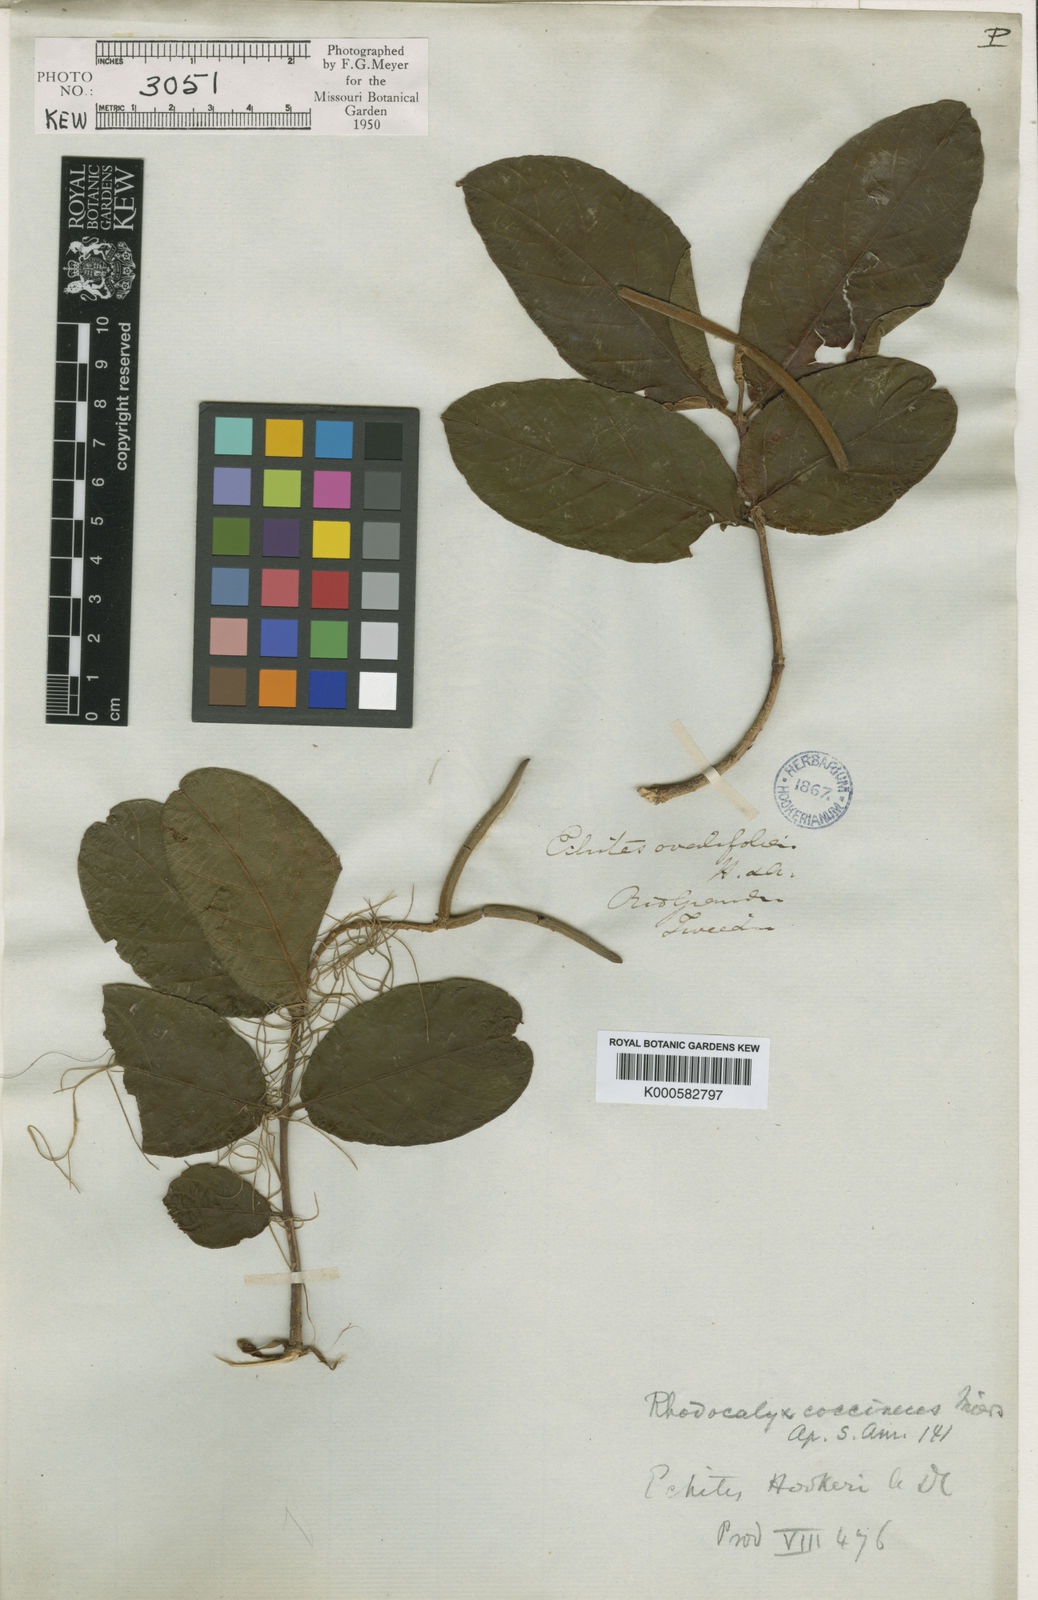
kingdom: Plantae
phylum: Tracheophyta
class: Magnoliopsida
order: Gentianales
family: Apocynaceae
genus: Mandevilla
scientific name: Mandevilla coccinea
